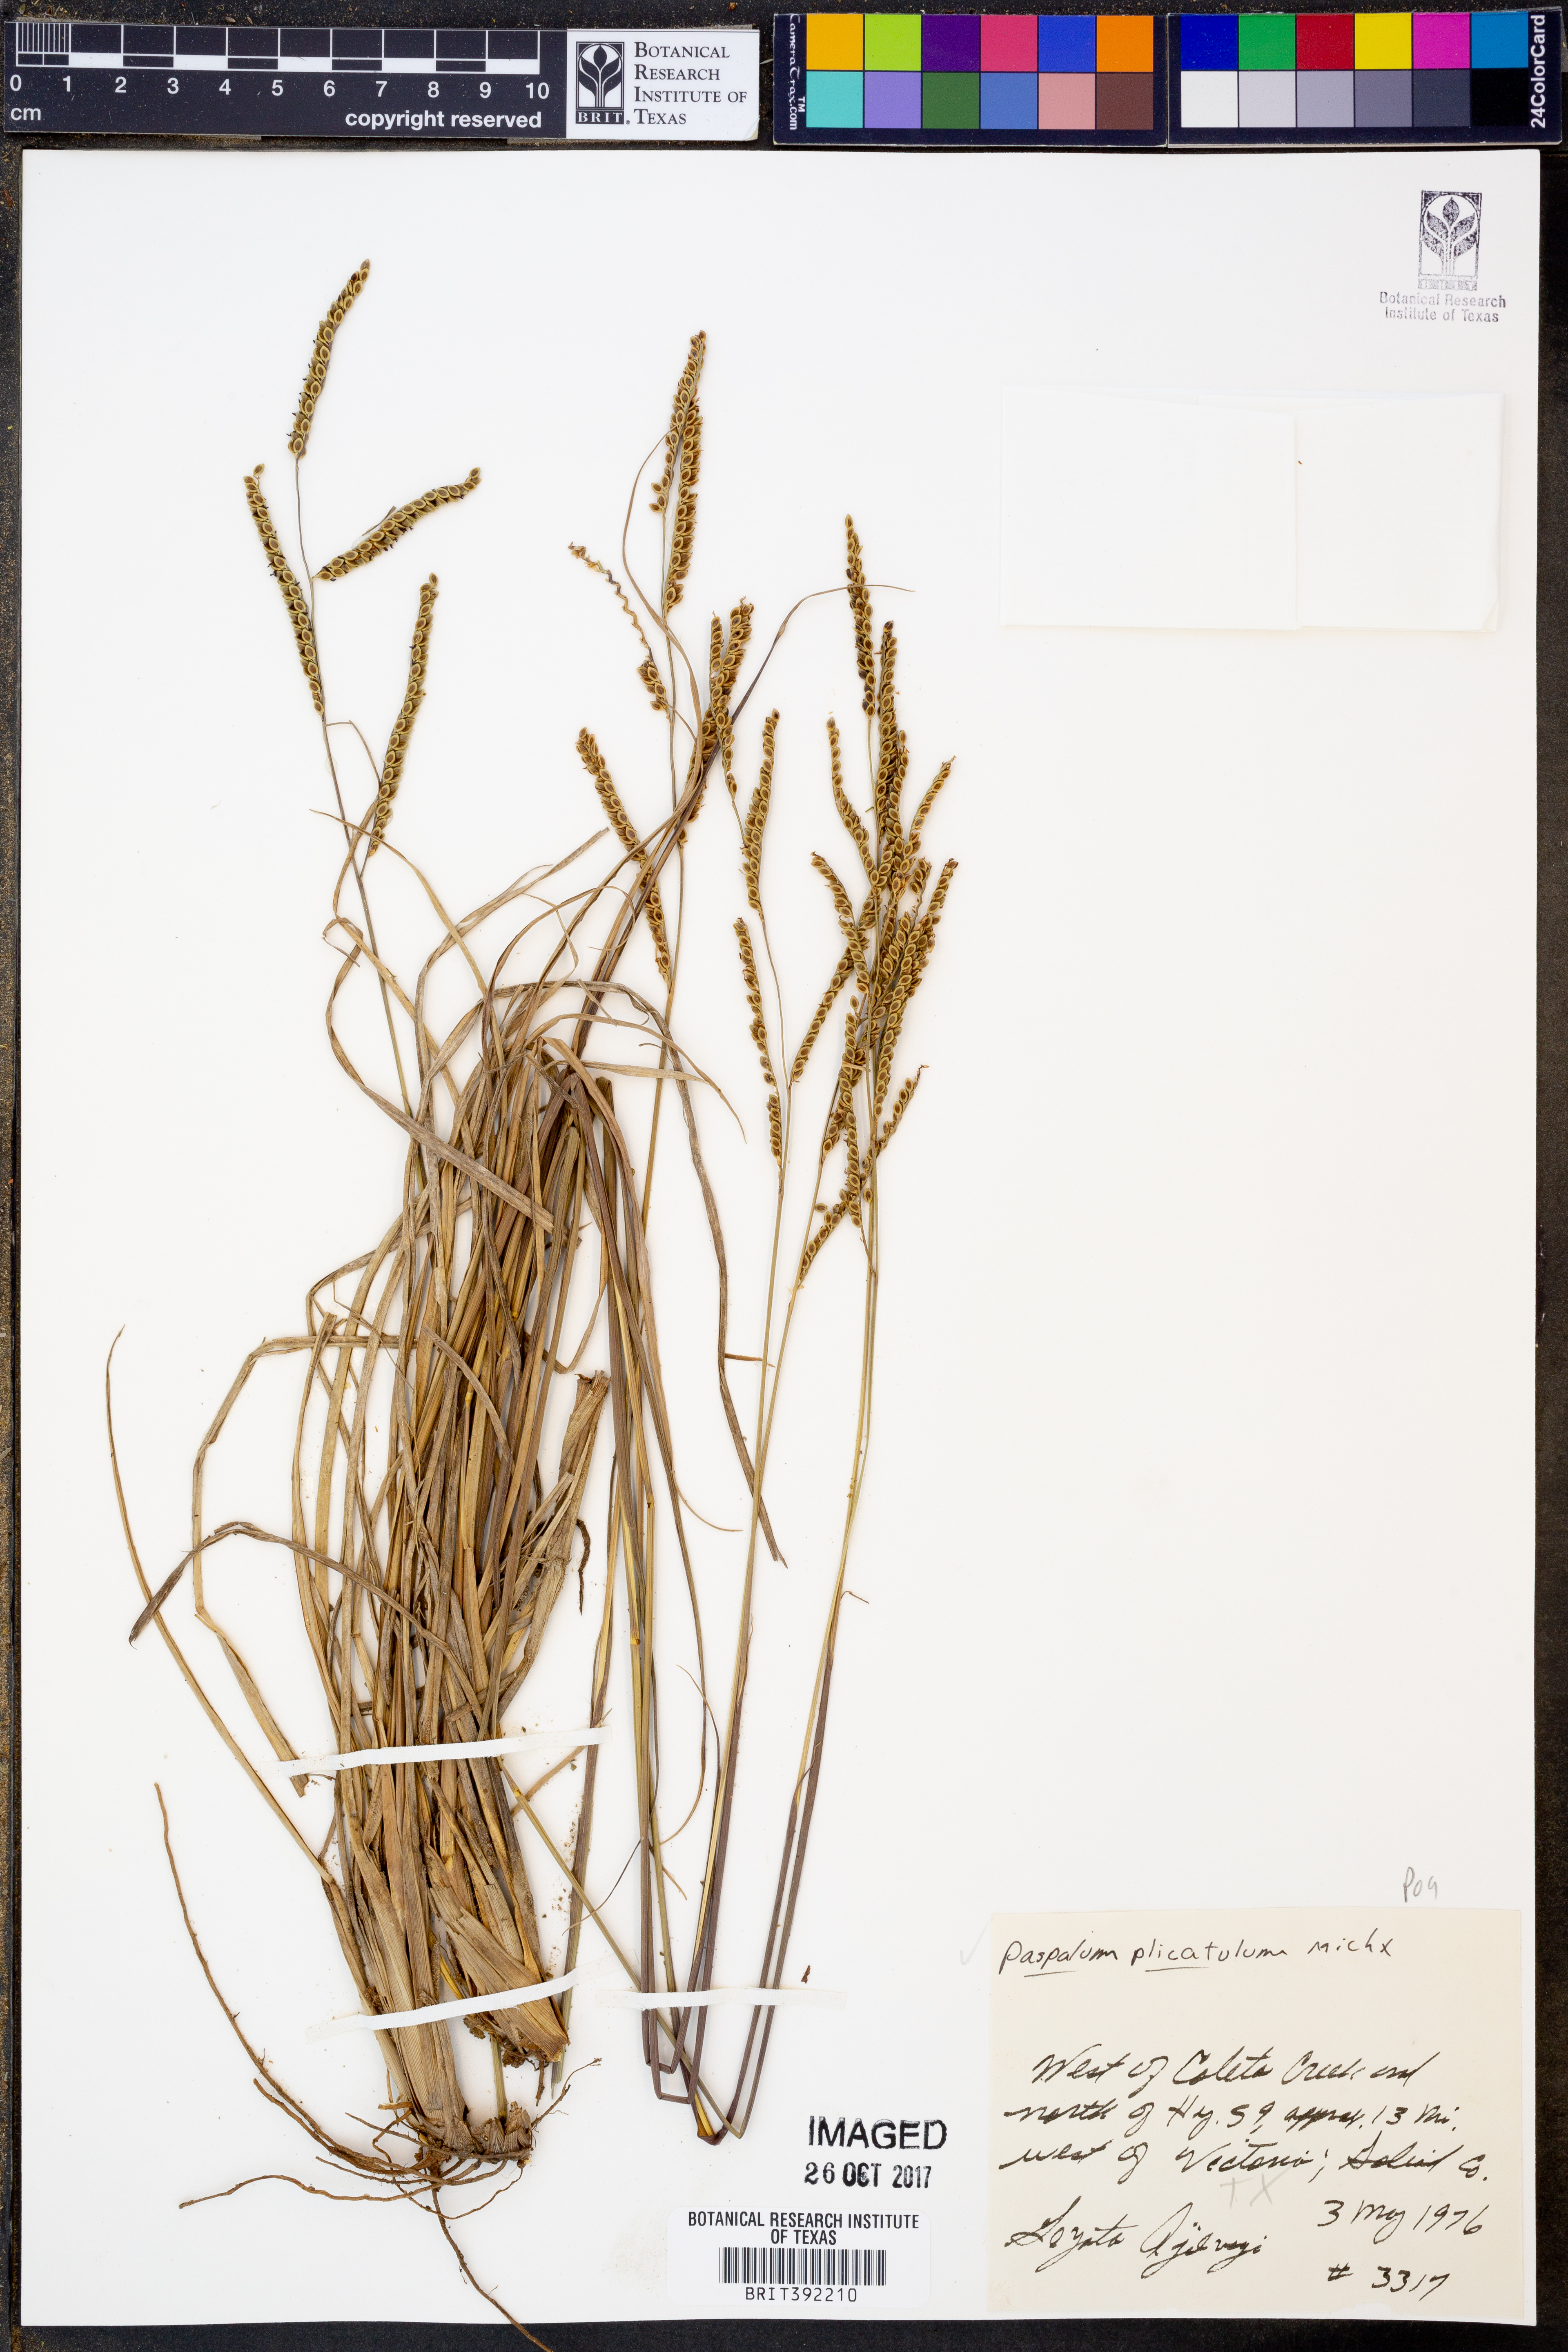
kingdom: Plantae
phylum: Tracheophyta
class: Liliopsida
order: Poales
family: Poaceae
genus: Paspalum
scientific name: Paspalum plicatulum
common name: Top paspalum
